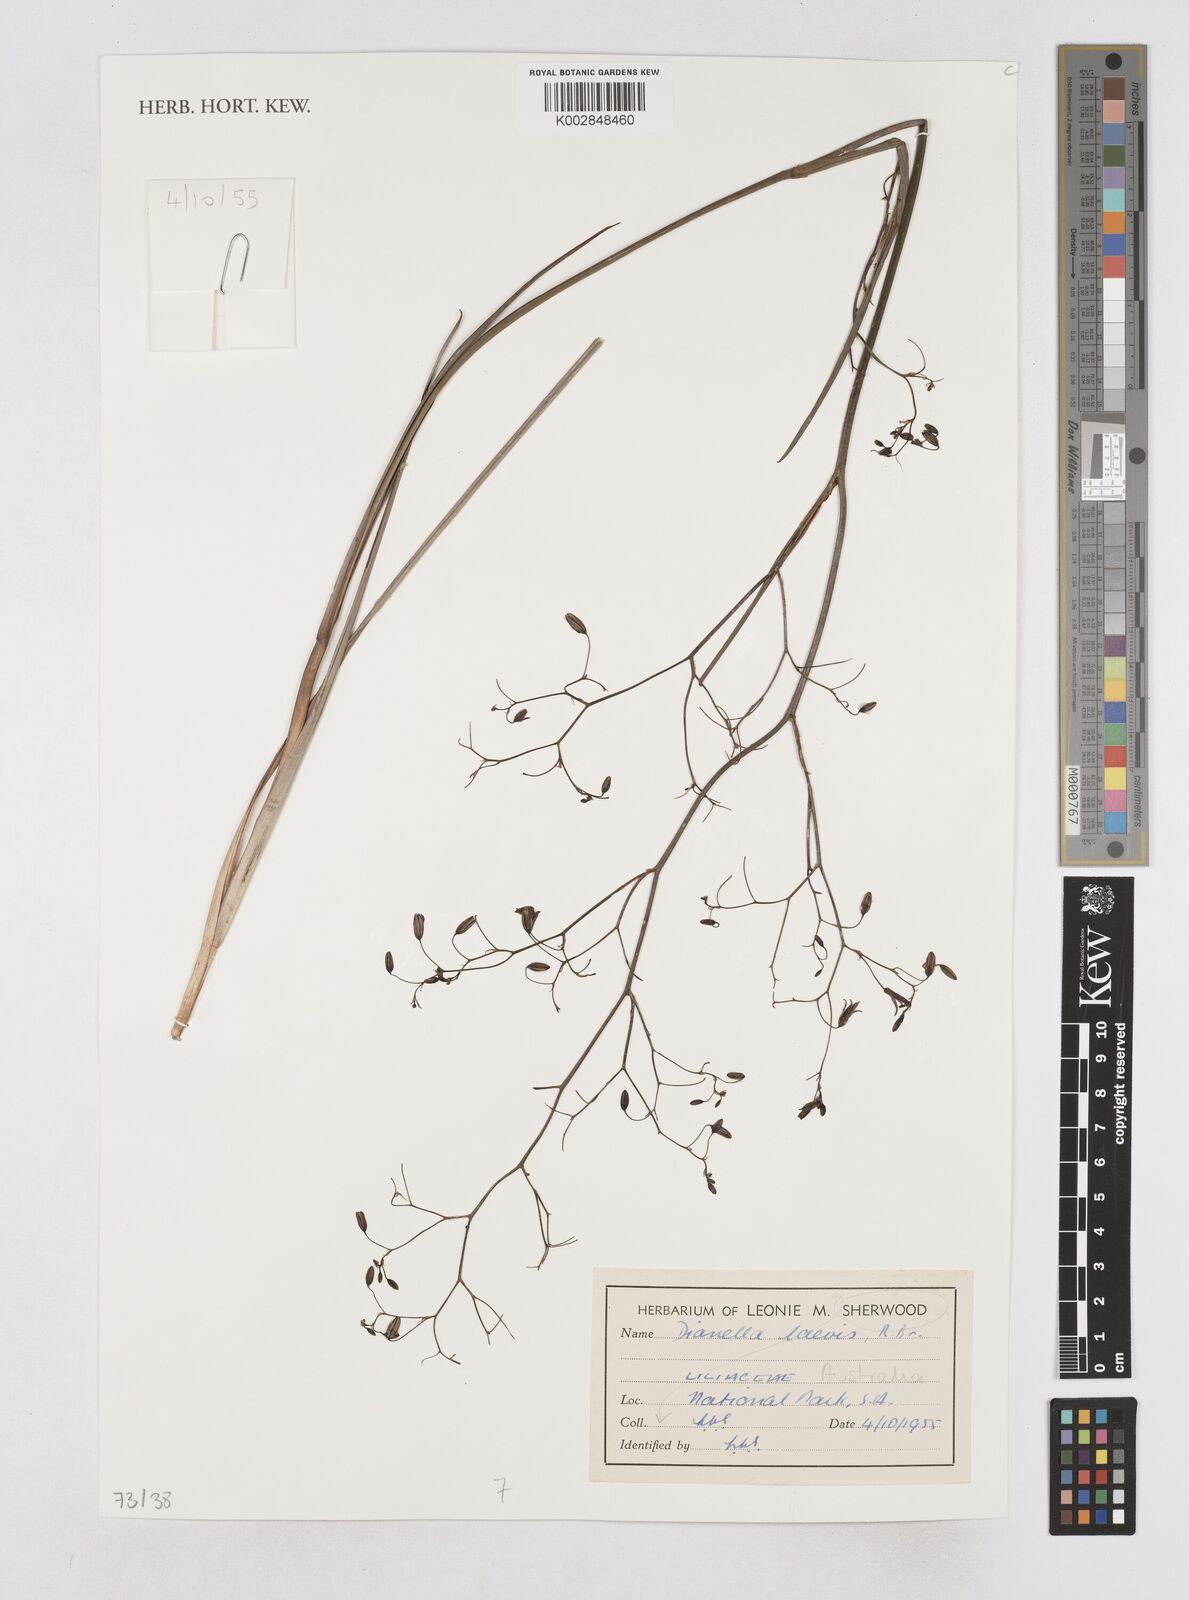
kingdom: Plantae
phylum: Tracheophyta
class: Liliopsida
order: Asparagales
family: Asphodelaceae
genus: Dianella
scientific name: Dianella longifolia
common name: Blue flax-lily
